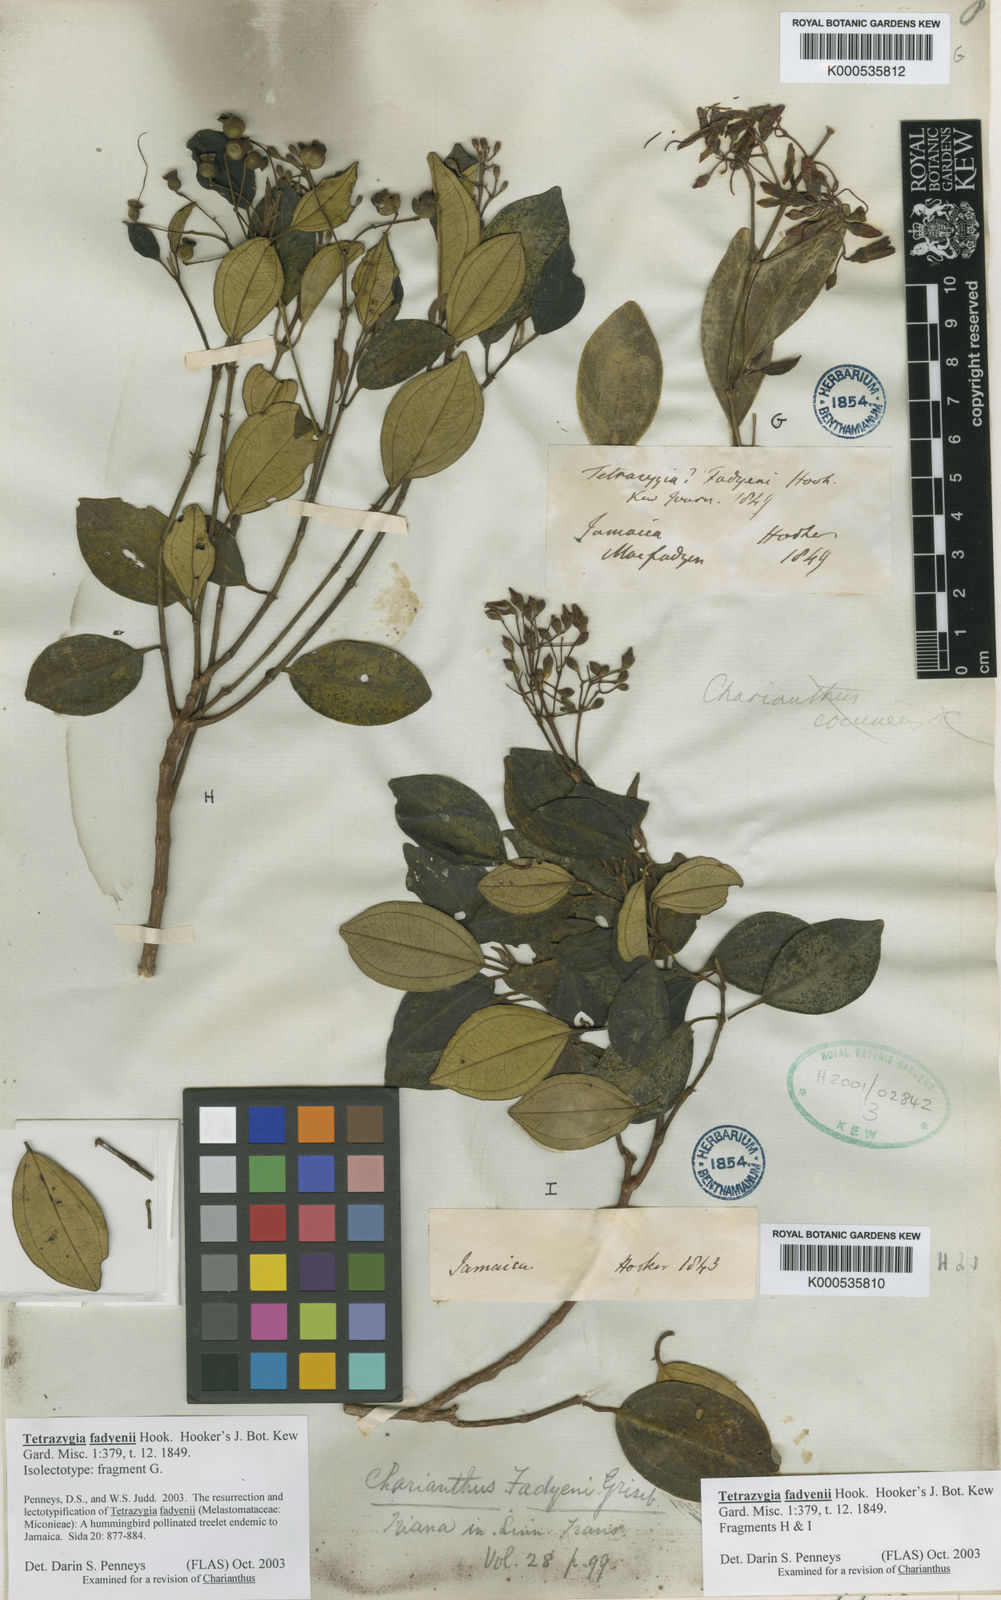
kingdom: Plantae
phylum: Tracheophyta
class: Magnoliopsida
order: Myrtales
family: Melastomataceae
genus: Miconia
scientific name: Miconia fadyenii
